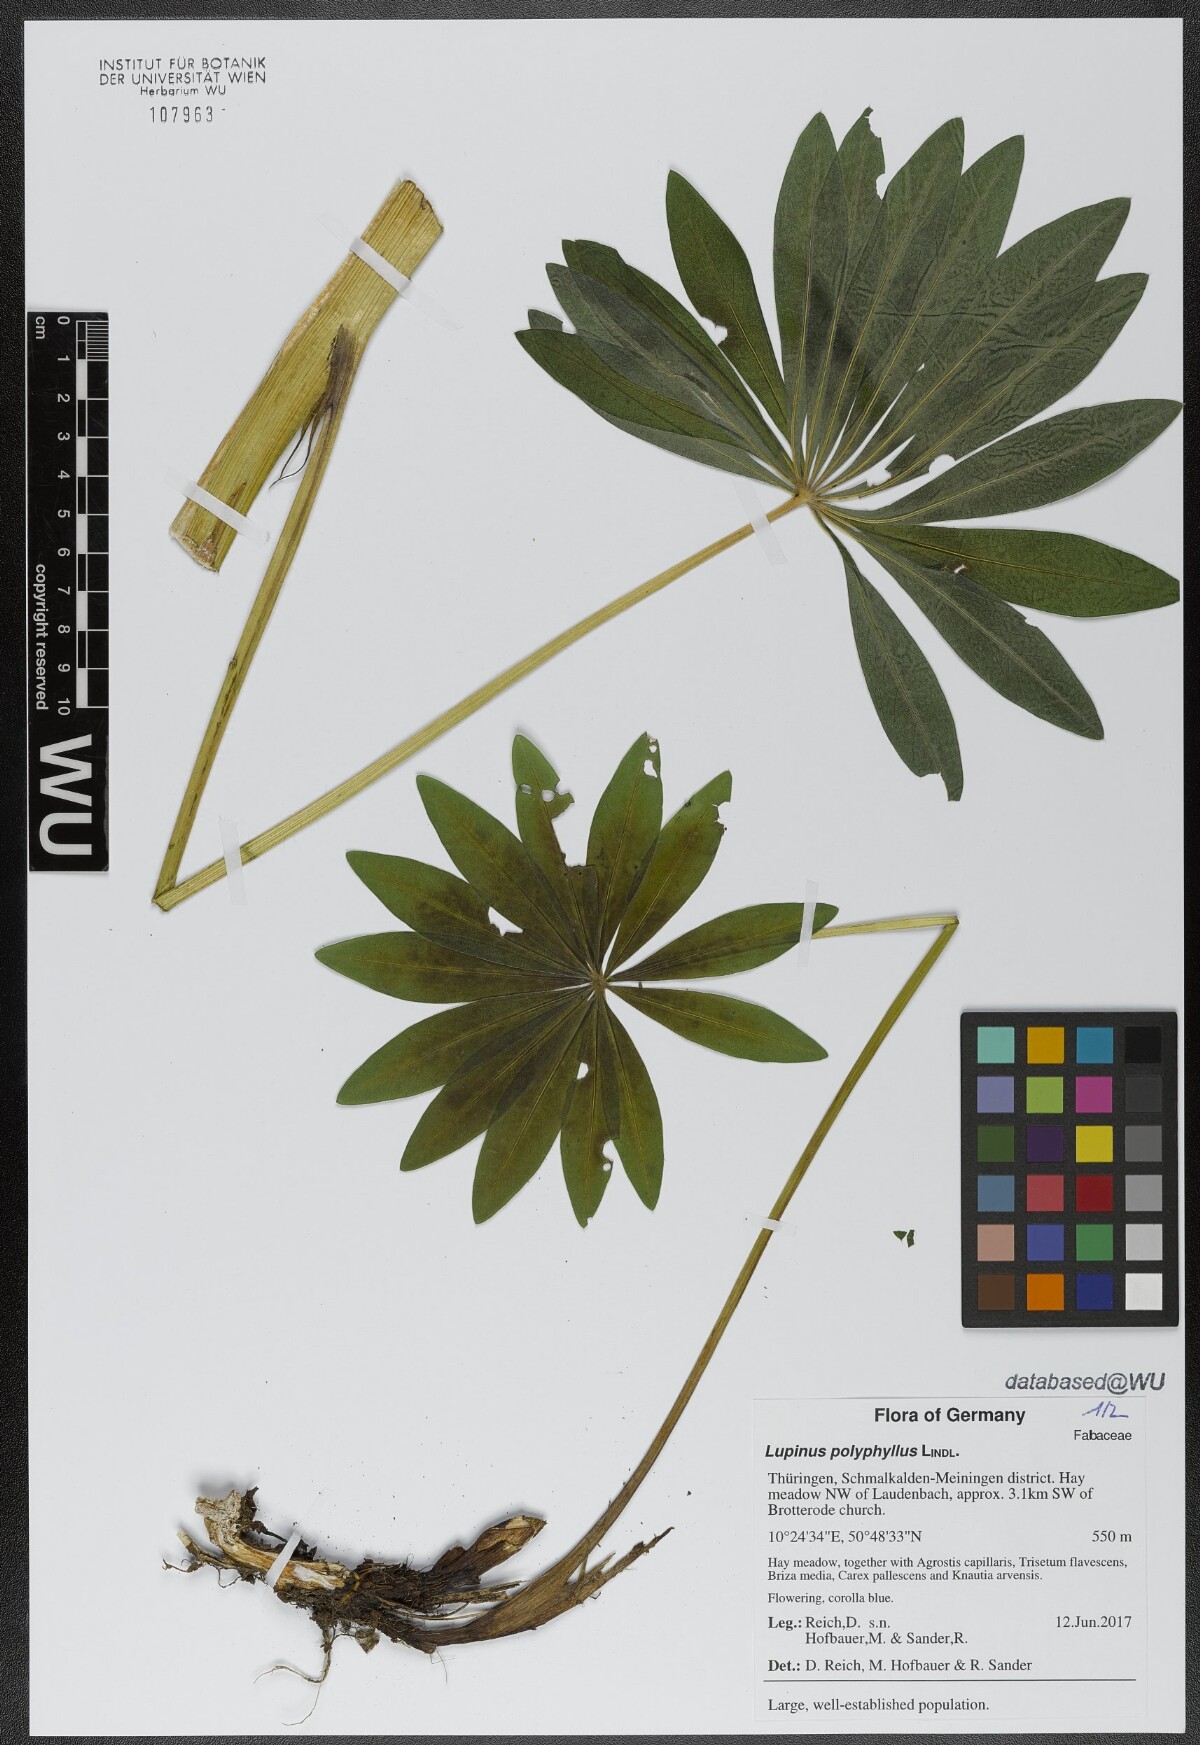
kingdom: Plantae
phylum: Tracheophyta
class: Magnoliopsida
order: Fabales
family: Fabaceae
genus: Lupinus
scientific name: Lupinus polyphyllus
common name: Garden lupin
